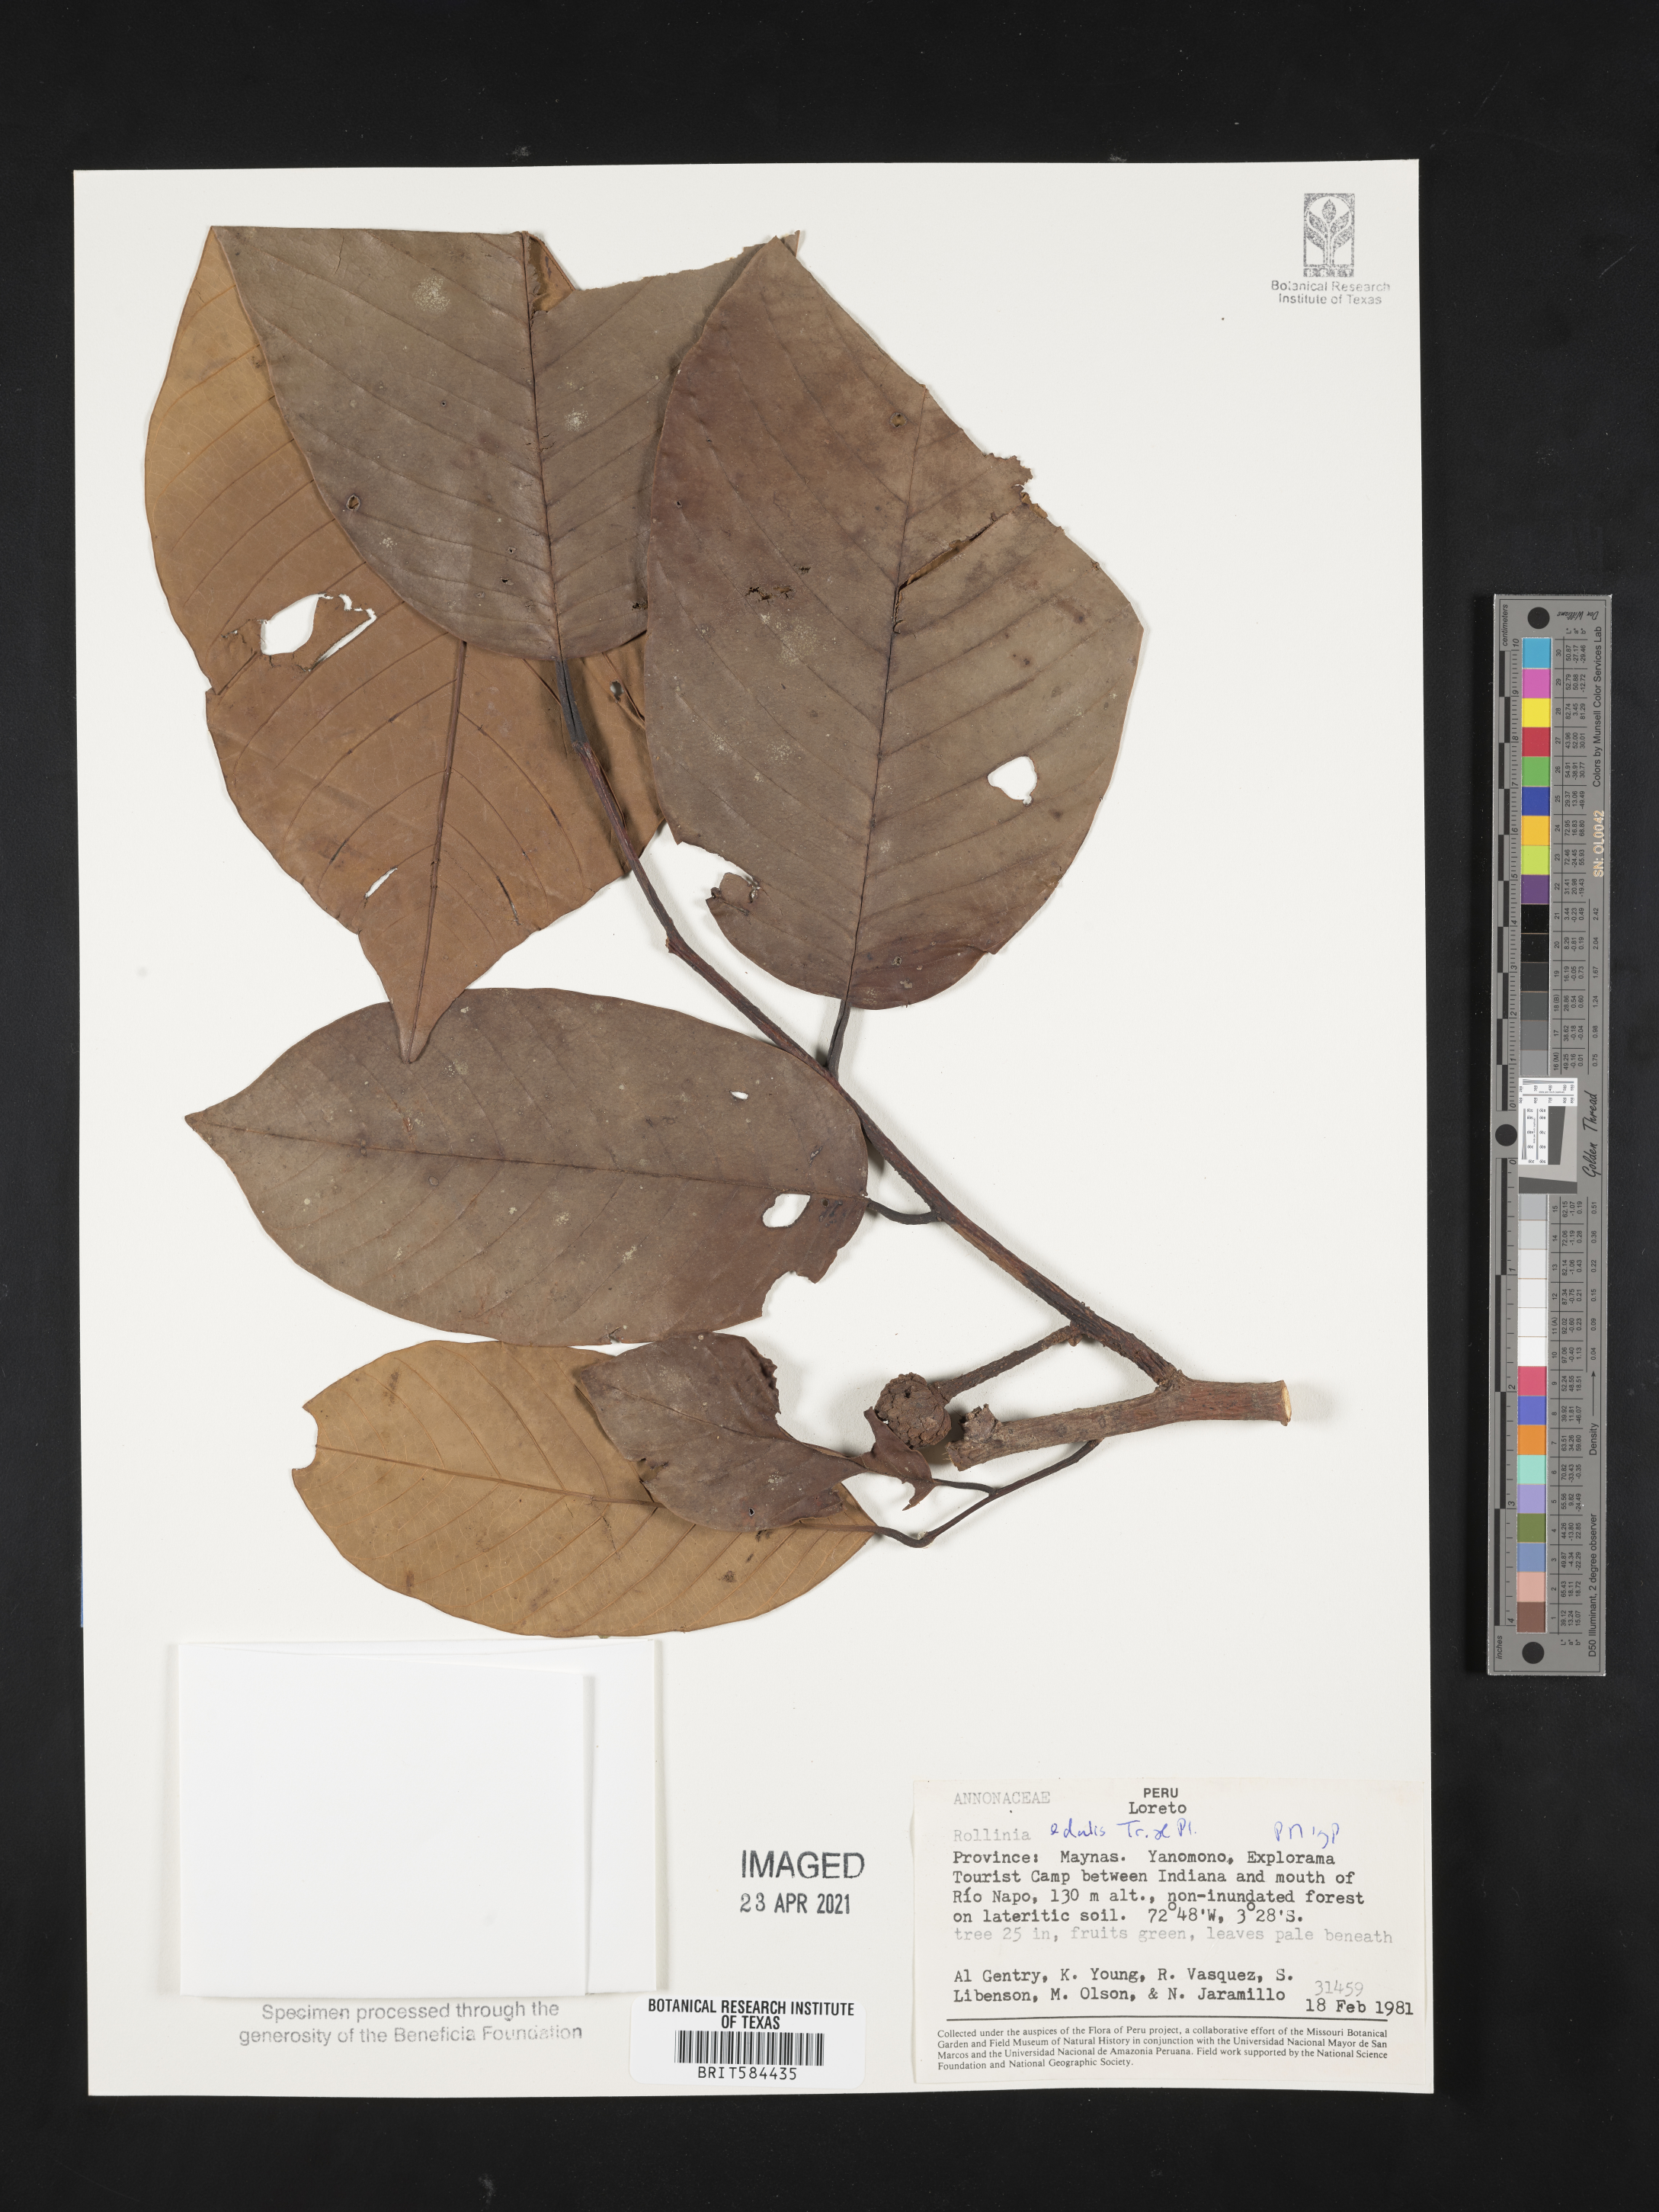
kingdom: Plantae
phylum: Tracheophyta
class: Magnoliopsida
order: Magnoliales
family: Annonaceae
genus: Annona
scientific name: Annona edulis
